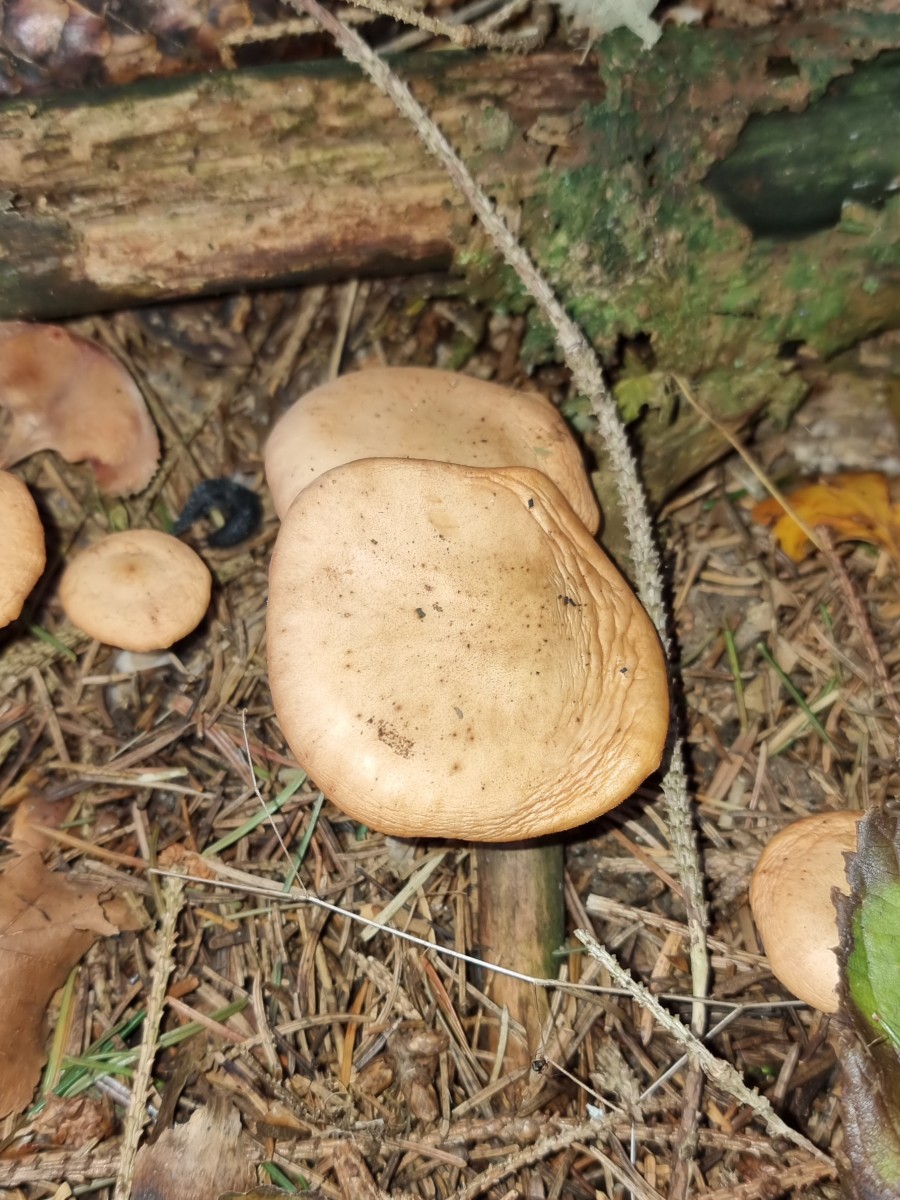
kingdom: Fungi
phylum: Basidiomycota
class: Agaricomycetes
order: Agaricales
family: Tricholomataceae
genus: Paralepista
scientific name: Paralepista
